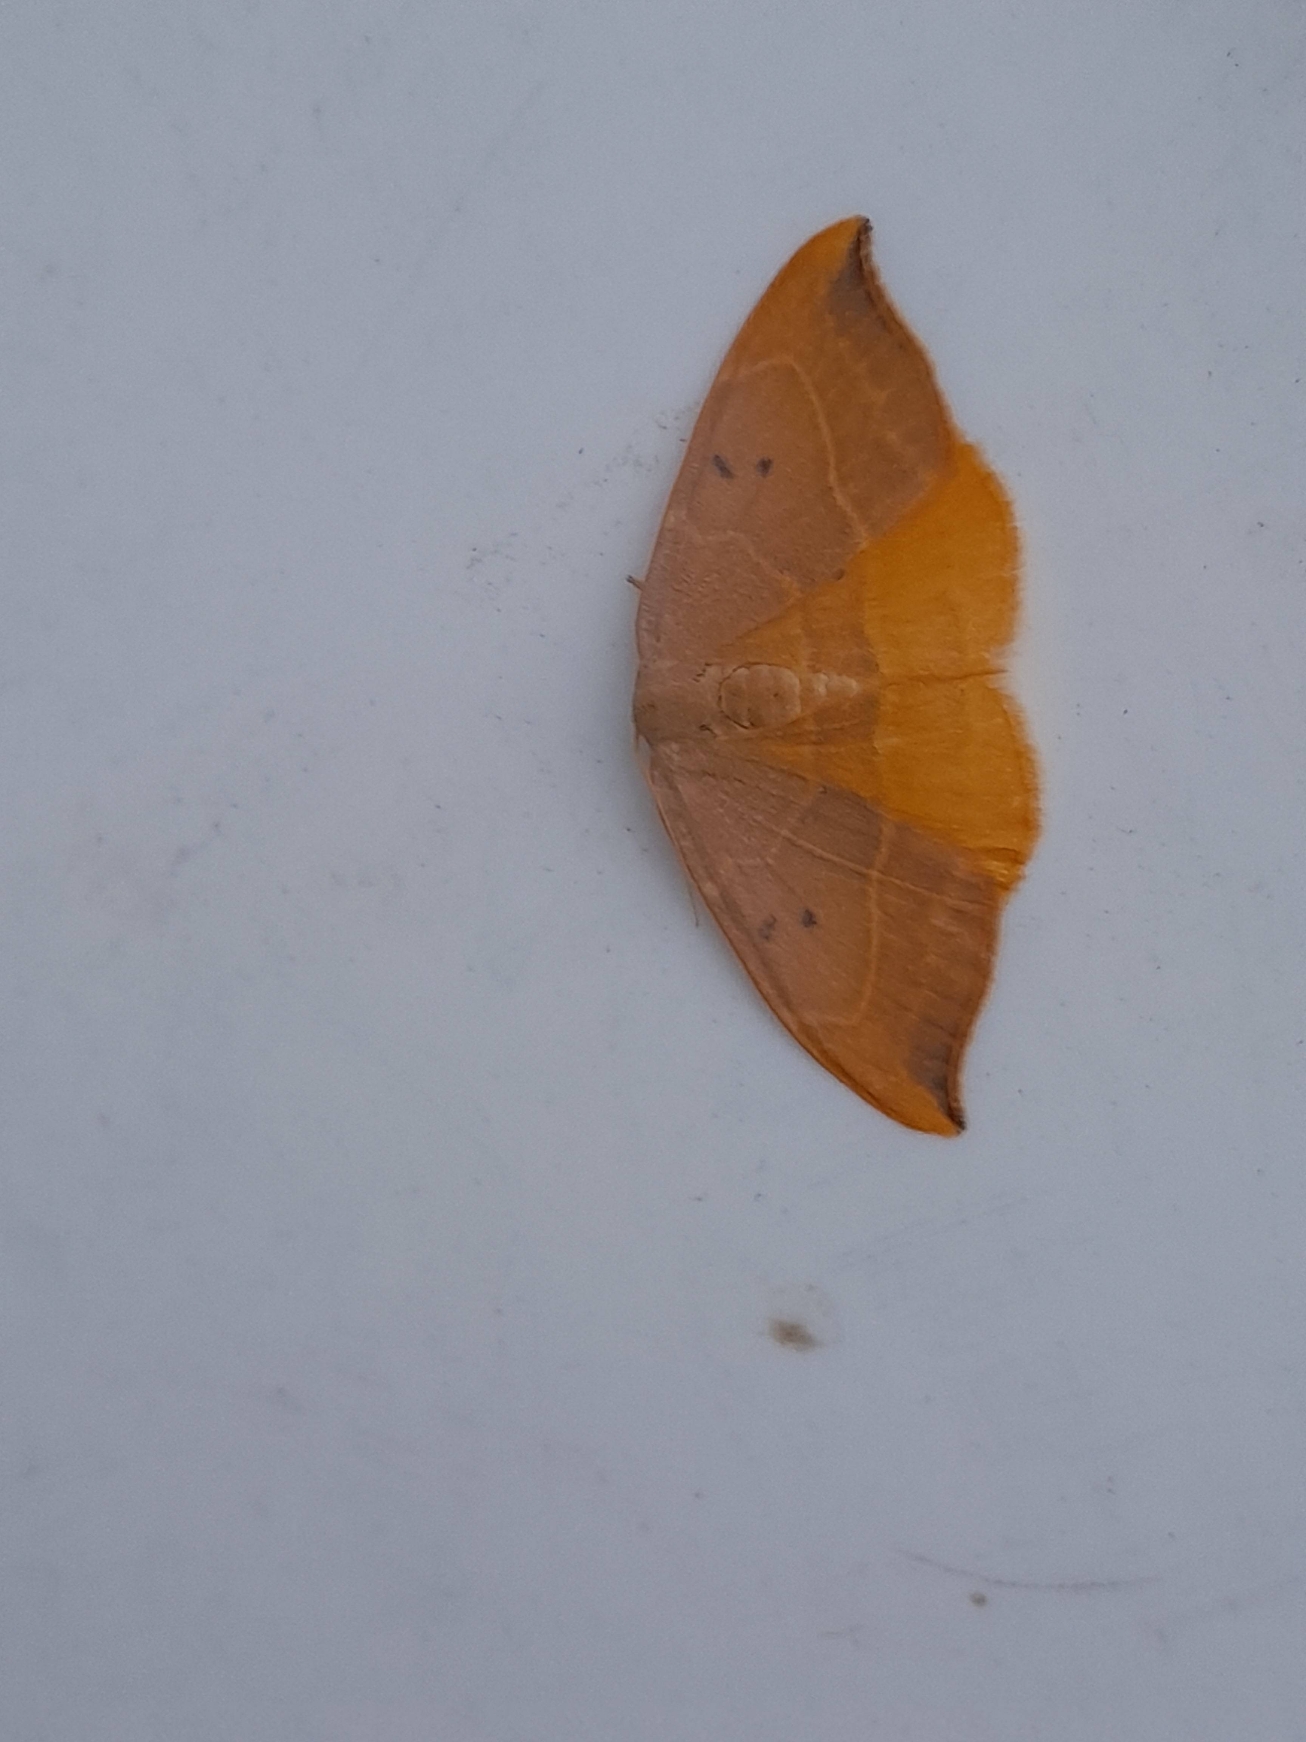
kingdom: Animalia
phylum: Arthropoda
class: Insecta
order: Lepidoptera
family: Drepanidae
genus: Watsonalla
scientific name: Watsonalla binaria
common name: Toplettet seglvinge
